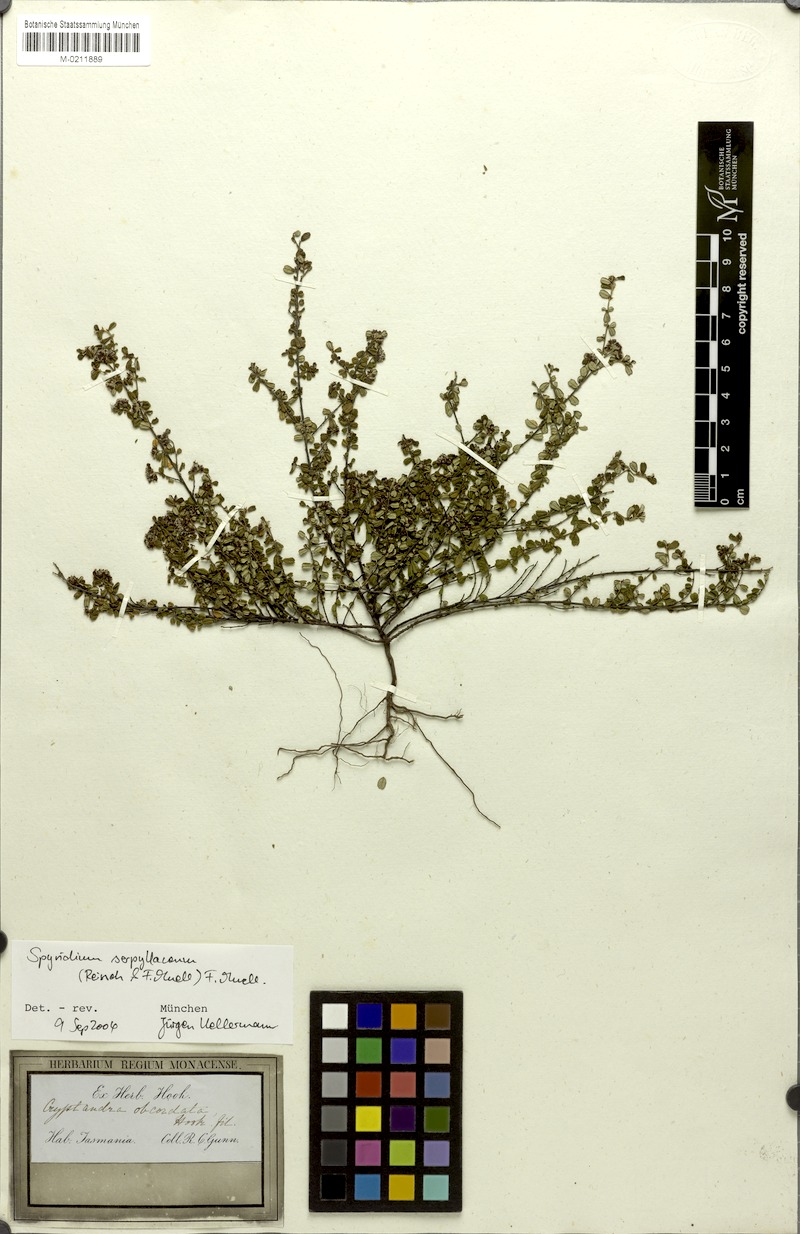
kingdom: Plantae
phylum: Tracheophyta
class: Magnoliopsida
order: Rosales
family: Rhamnaceae
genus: Spyridium
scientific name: Spyridium obcordatum
